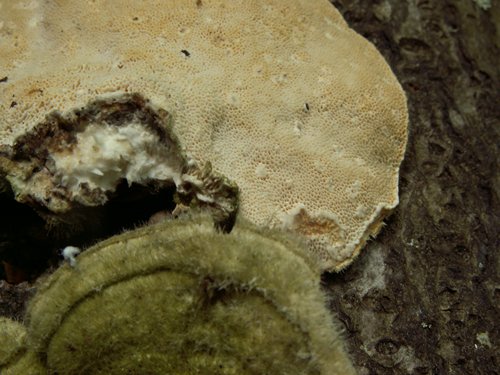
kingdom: Fungi
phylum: Basidiomycota
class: Agaricomycetes
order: Polyporales
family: Polyporaceae
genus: Trametes
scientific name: Trametes hirsuta
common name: håret læderporesvamp
